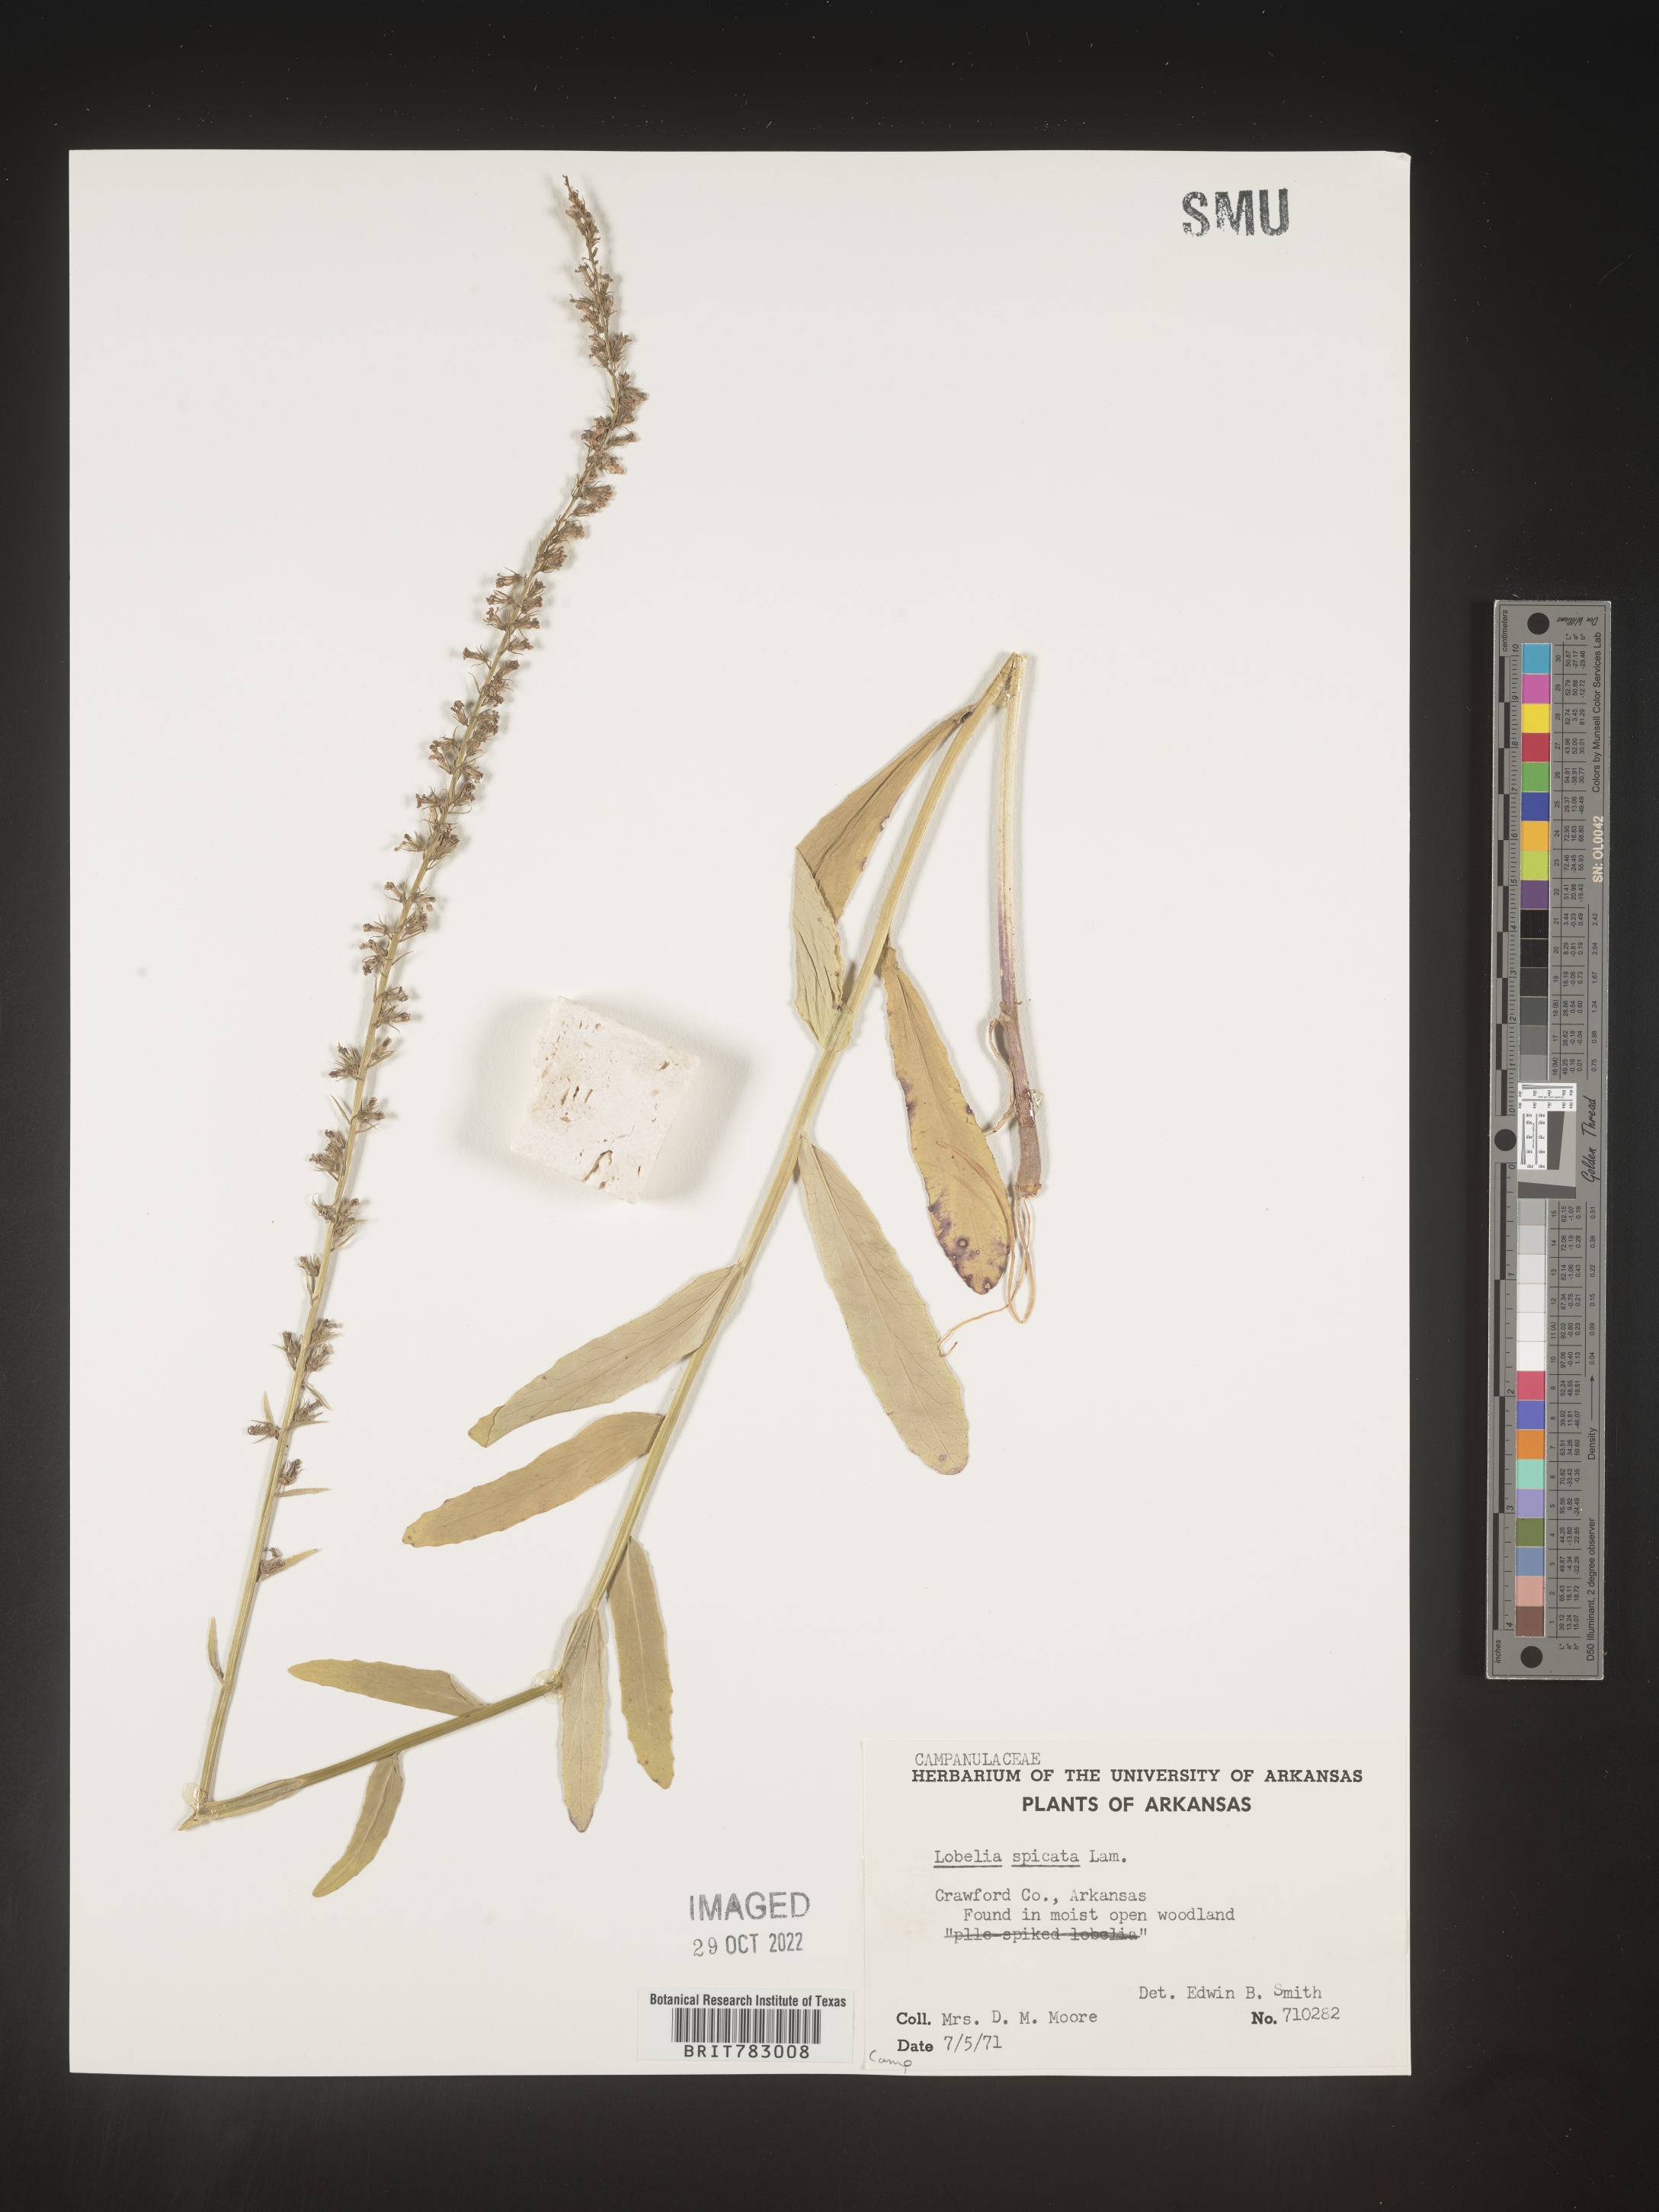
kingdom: Plantae
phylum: Tracheophyta
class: Magnoliopsida
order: Asterales
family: Campanulaceae
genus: Lobelia
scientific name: Lobelia spicata
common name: Pale-spike lobelia
